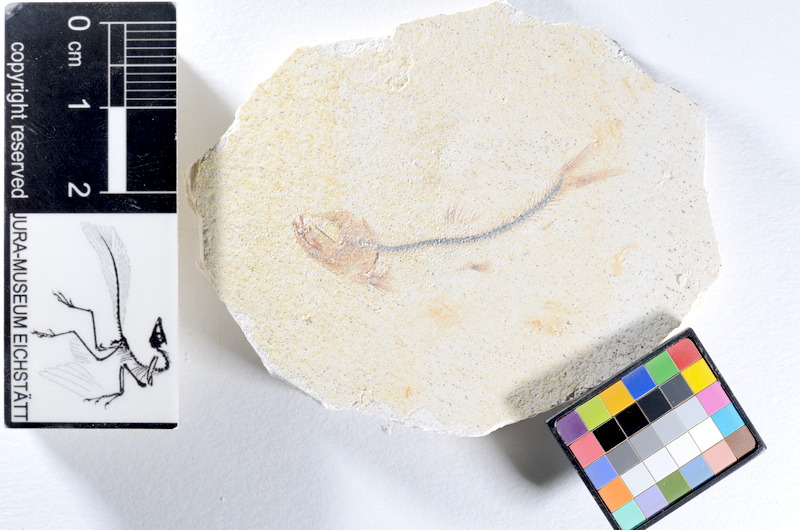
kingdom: Animalia
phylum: Chordata
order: Salmoniformes
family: Orthogonikleithridae
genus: Orthogonikleithrus
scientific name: Orthogonikleithrus hoelli
